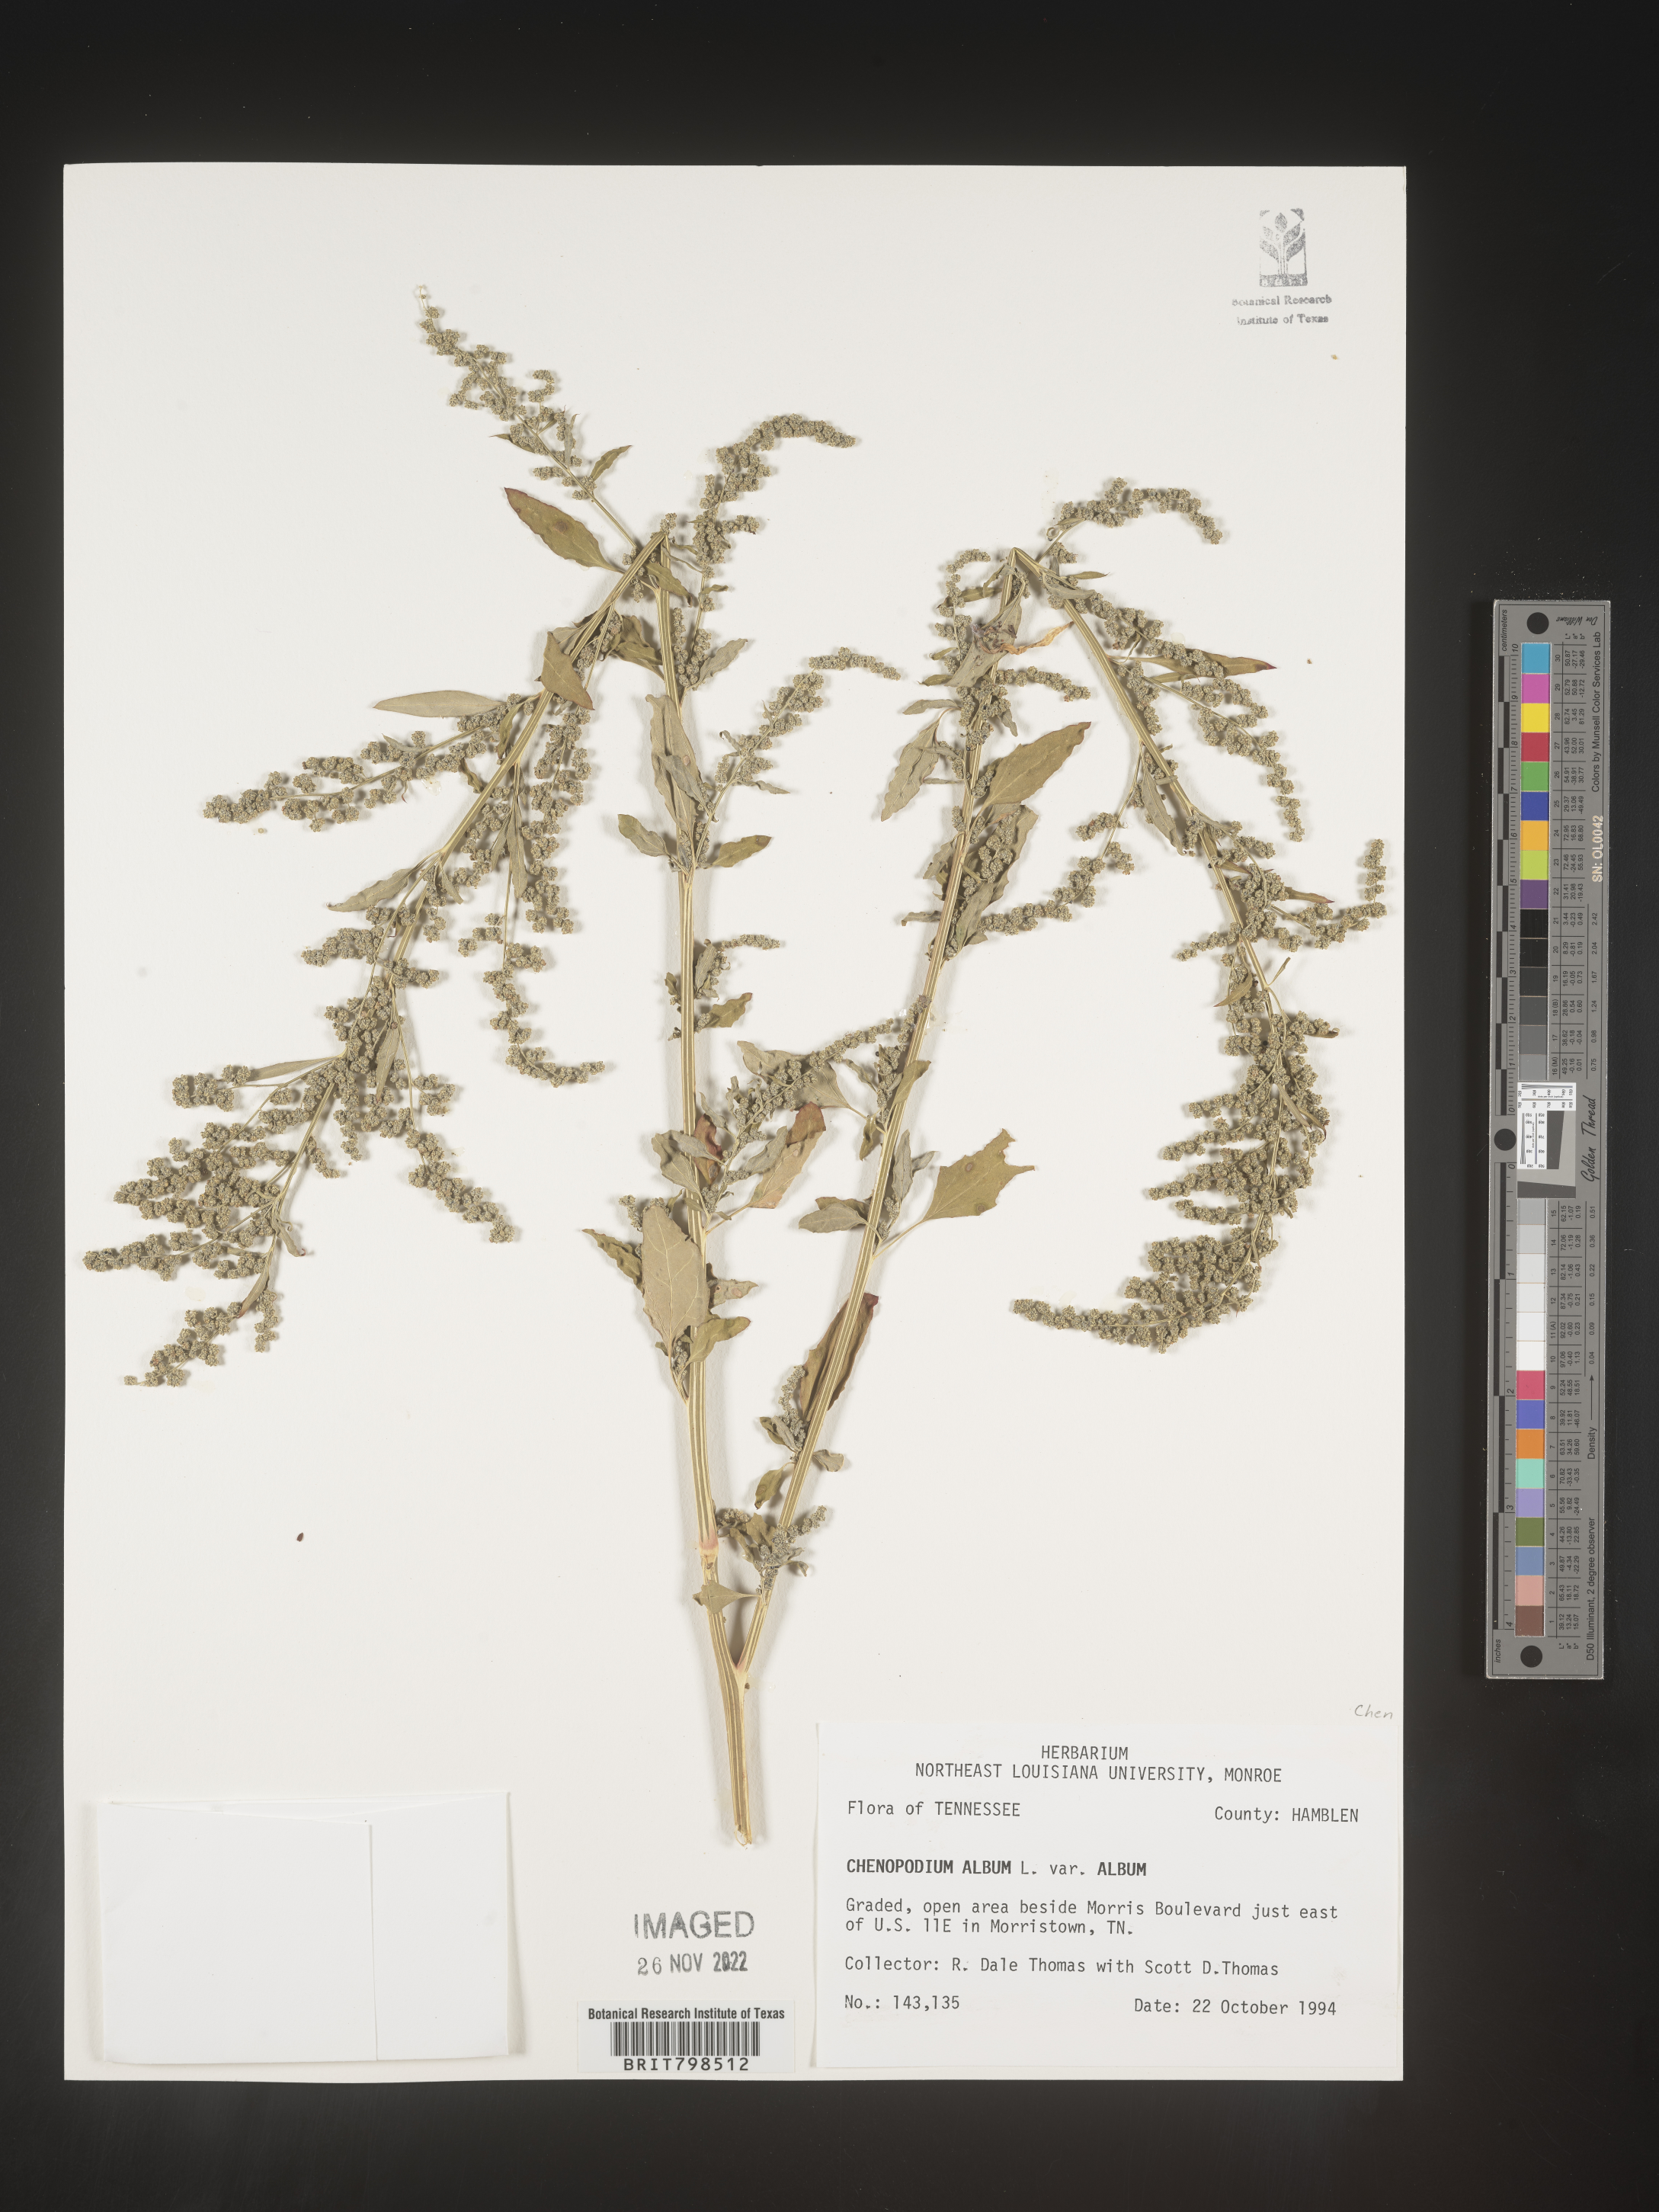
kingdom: Plantae
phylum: Tracheophyta
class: Magnoliopsida
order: Caryophyllales
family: Amaranthaceae
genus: Chenopodium
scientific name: Chenopodium album
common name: Fat-hen
